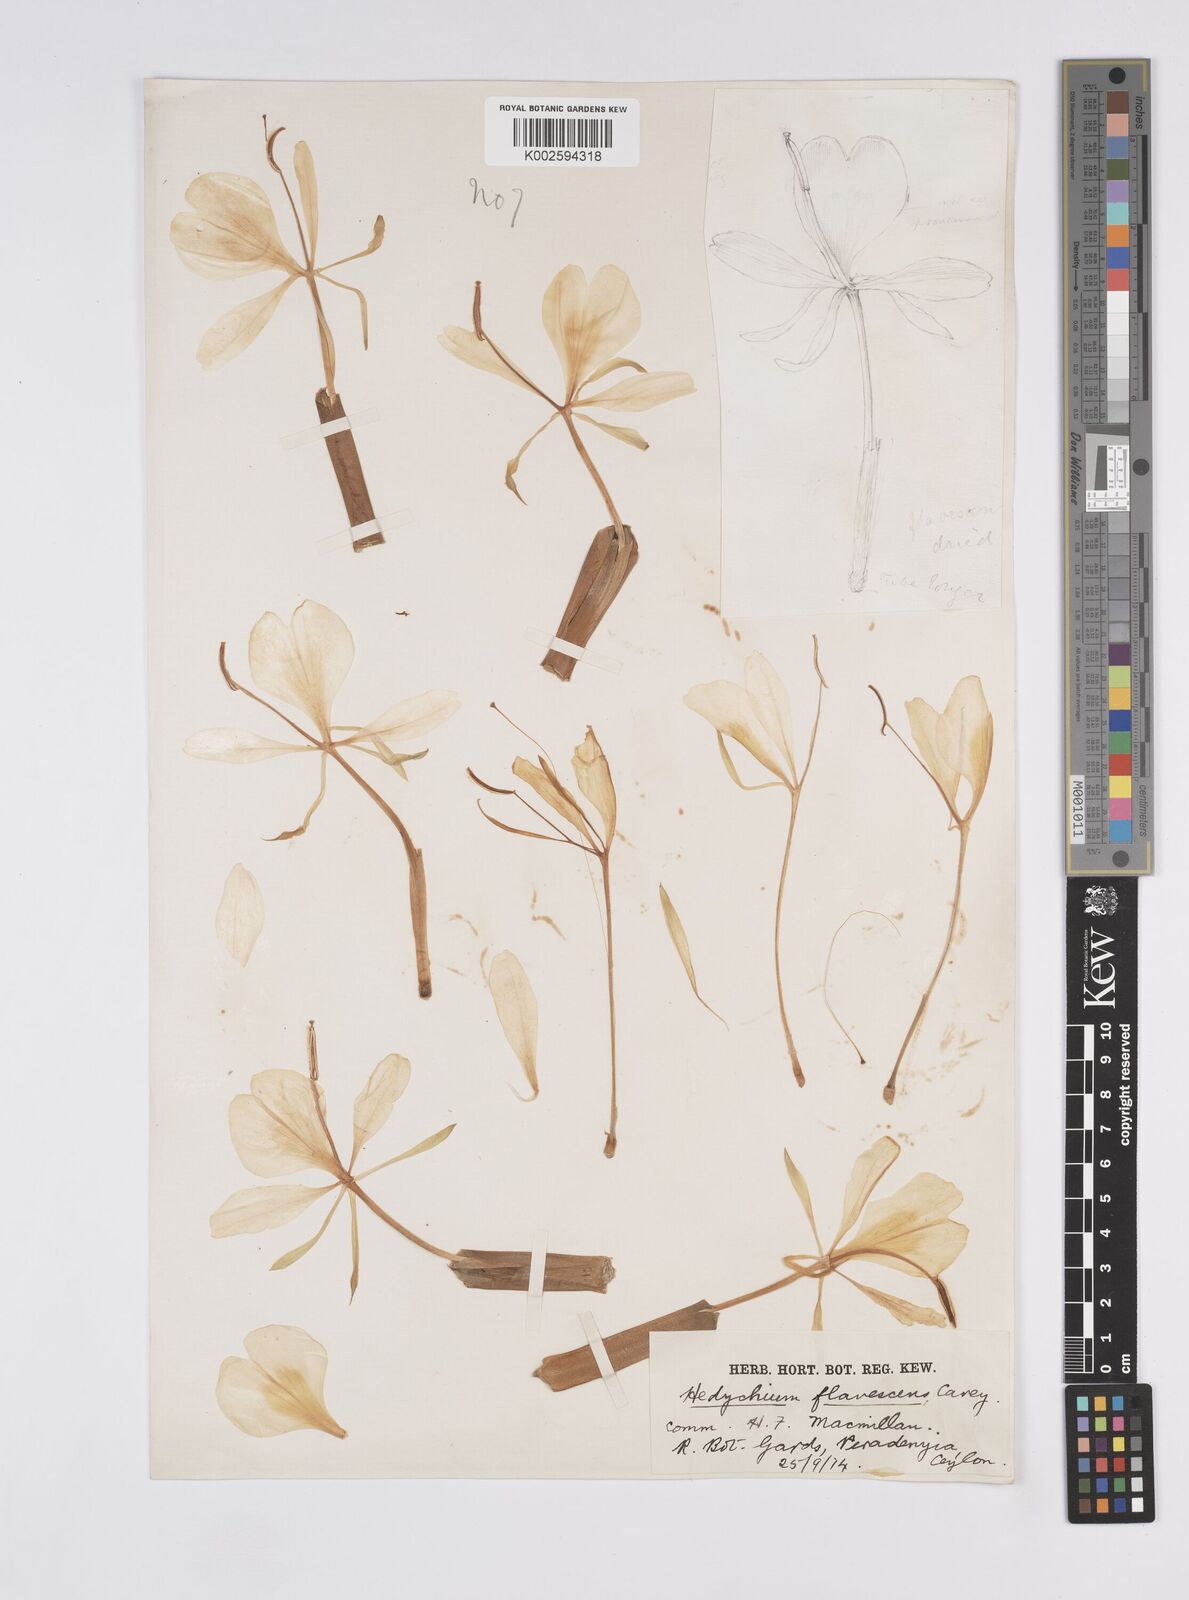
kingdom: Plantae
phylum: Tracheophyta
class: Liliopsida
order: Zingiberales
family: Zingiberaceae
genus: Hedychium
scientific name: Hedychium flavescens
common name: Yellow ginger
